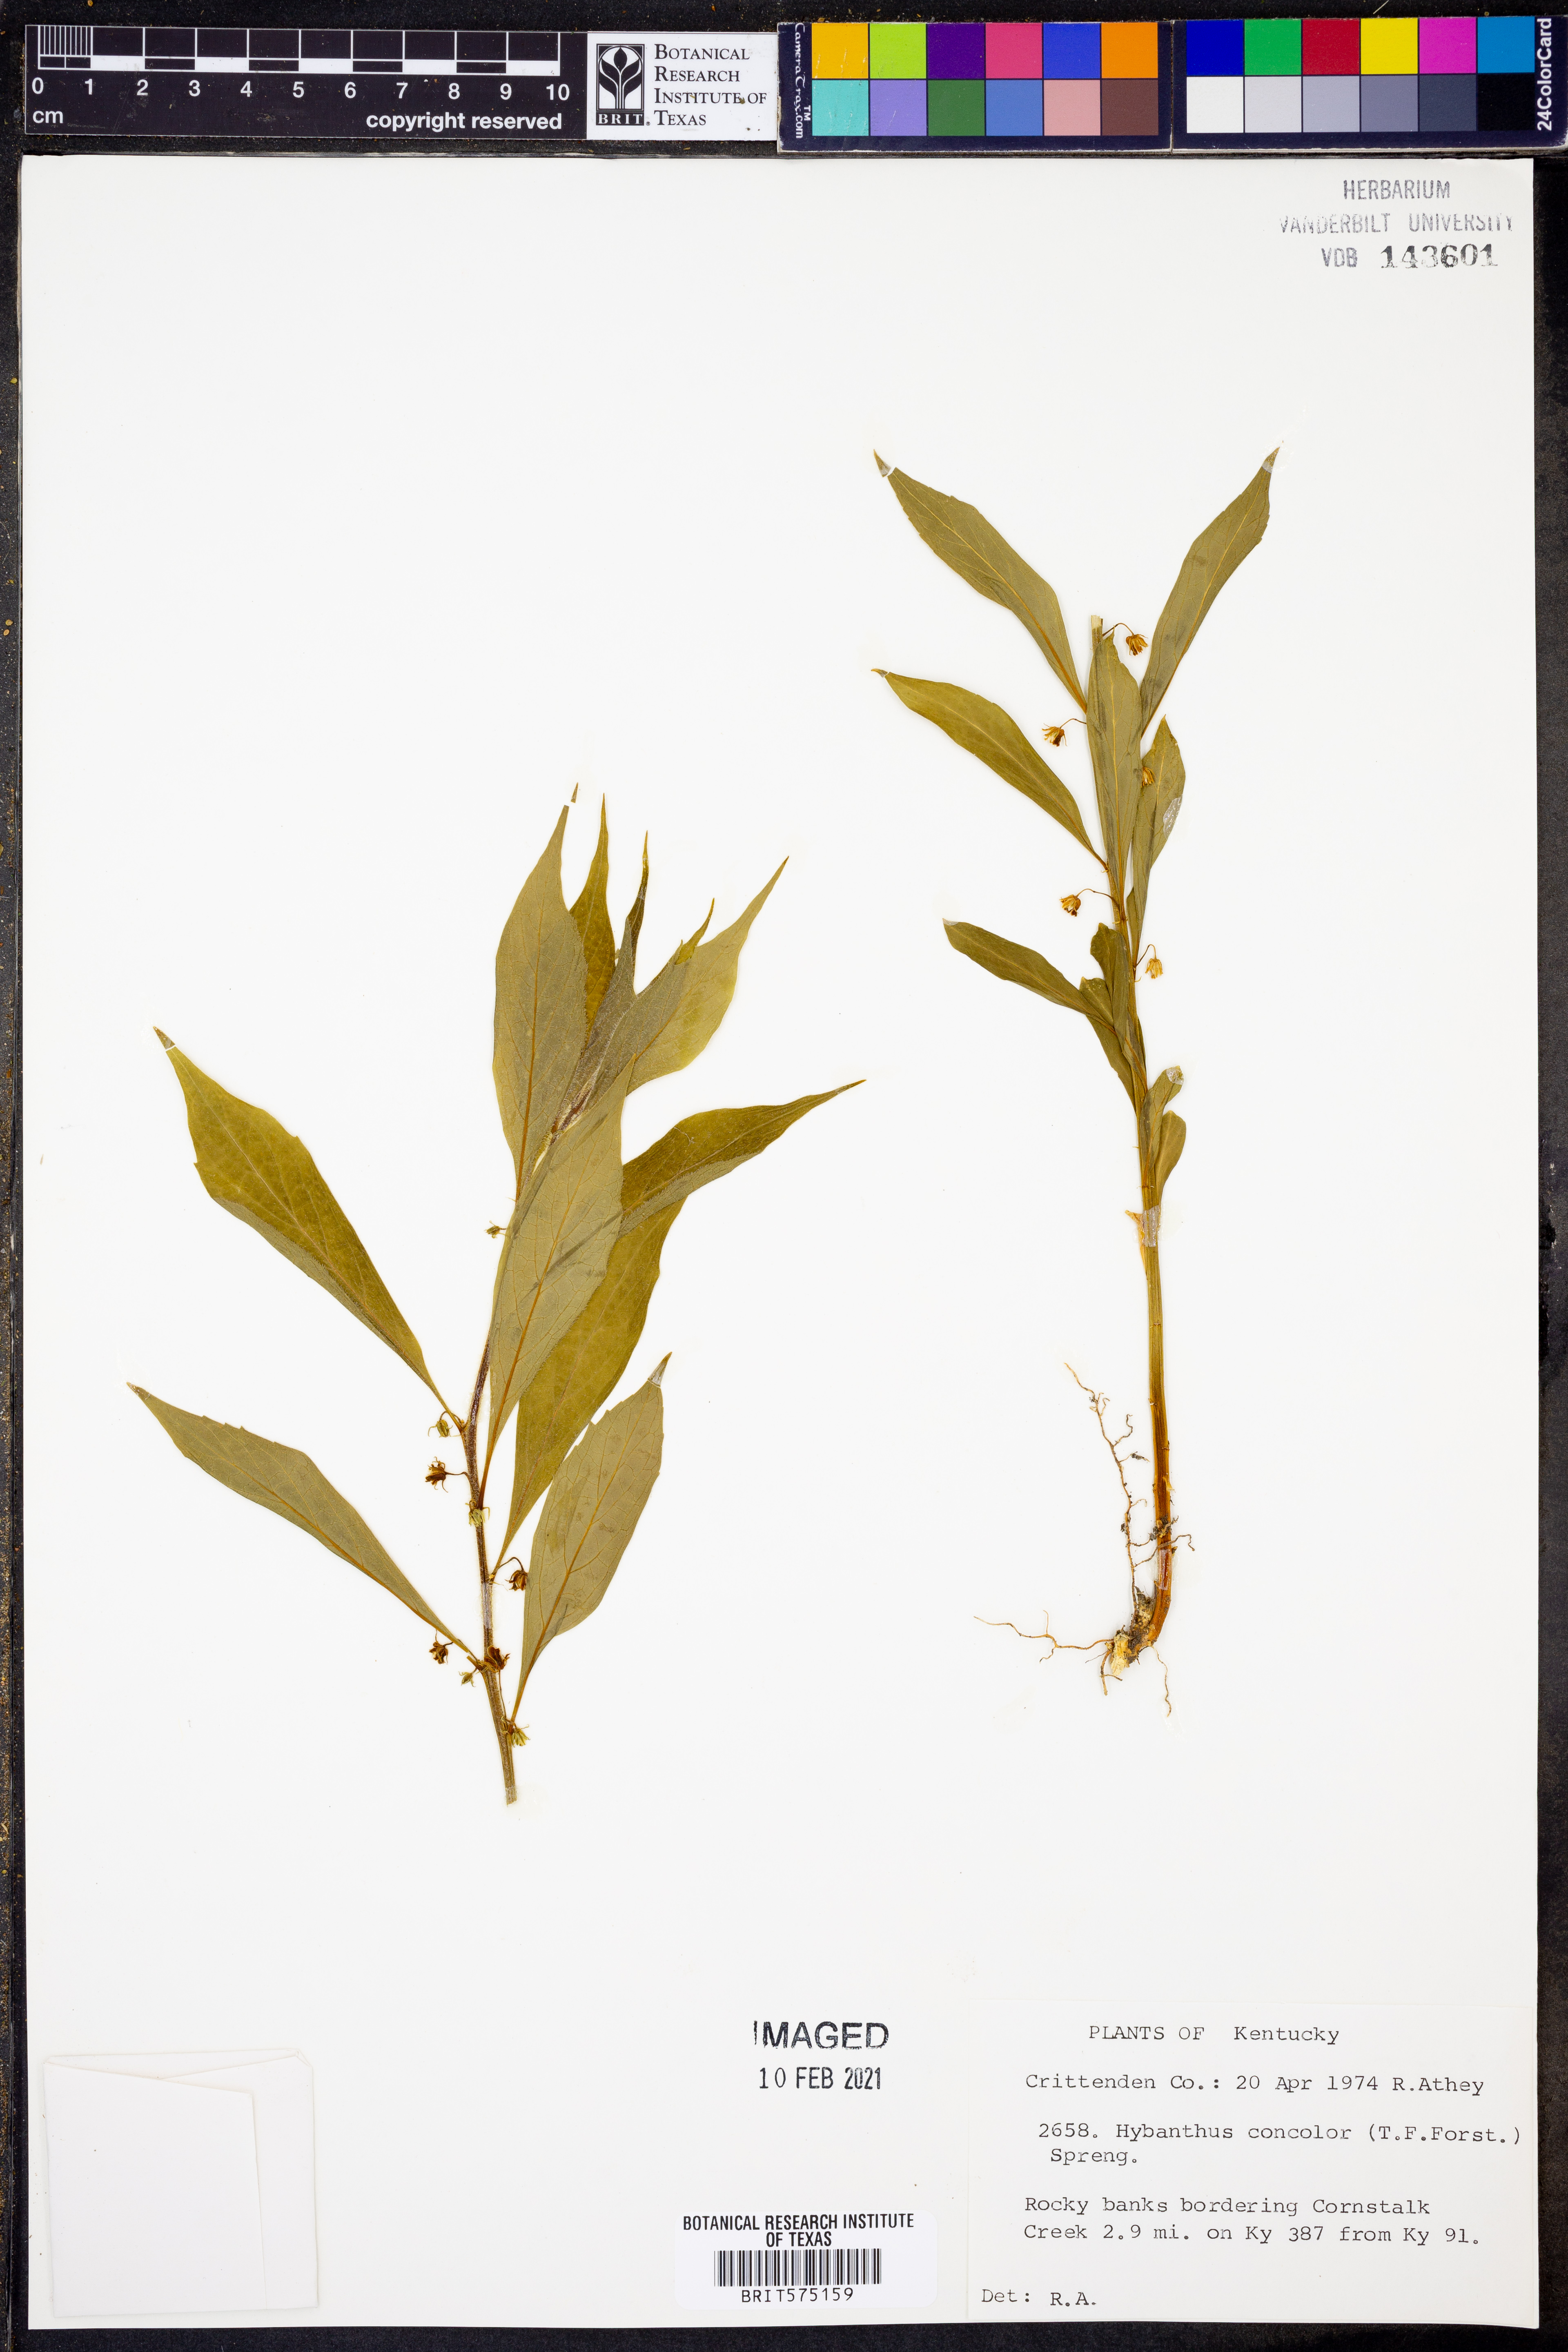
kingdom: Plantae
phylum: Tracheophyta
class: Magnoliopsida
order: Malpighiales
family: Violaceae
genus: Cubelium
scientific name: Cubelium concolor
